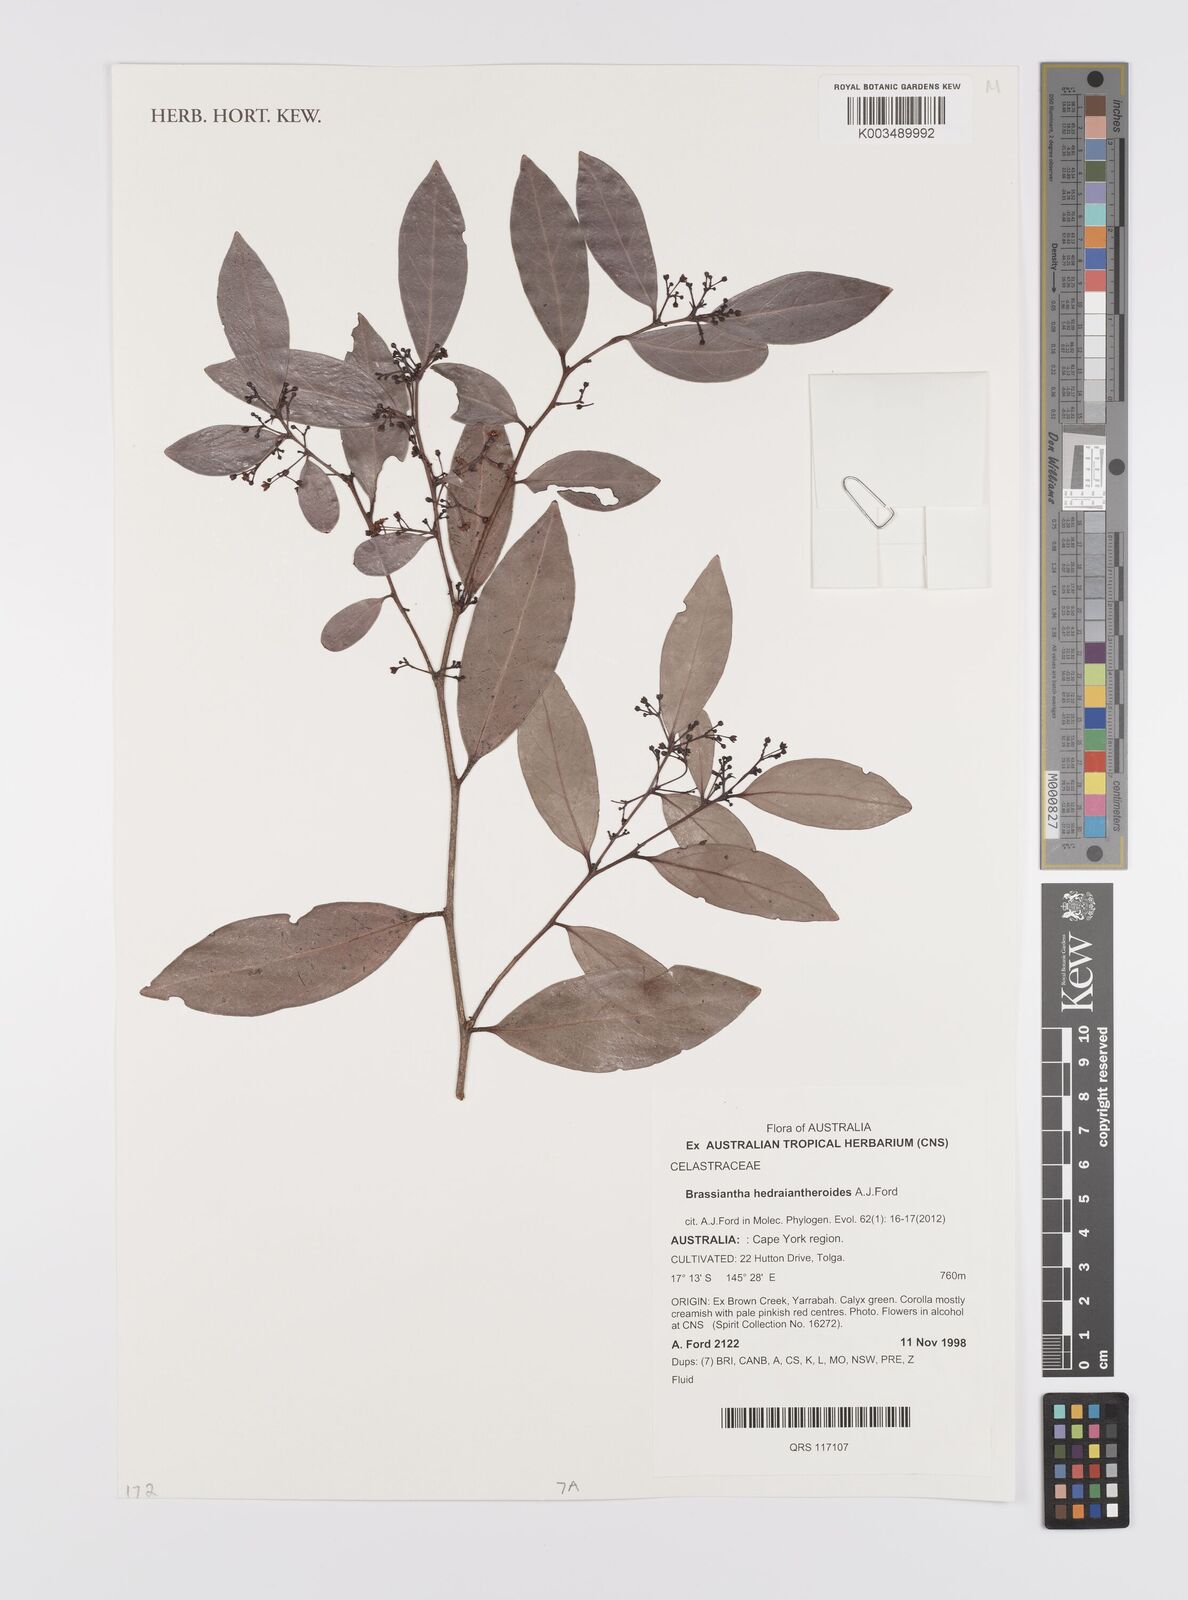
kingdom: Plantae
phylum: Tracheophyta
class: Magnoliopsida
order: Celastrales
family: Celastraceae
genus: Hedraianthera
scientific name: Hedraianthera porphyropetala
